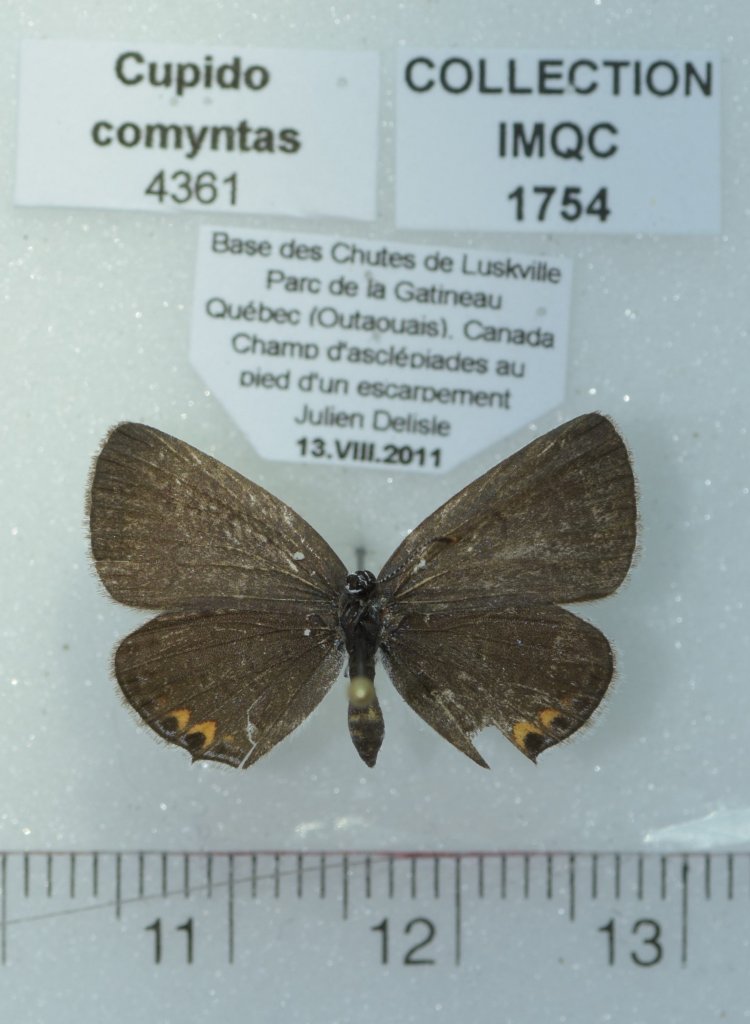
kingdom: Animalia
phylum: Arthropoda
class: Insecta
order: Lepidoptera
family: Lycaenidae
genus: Elkalyce
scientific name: Elkalyce comyntas
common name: Eastern Tailed-Blue
